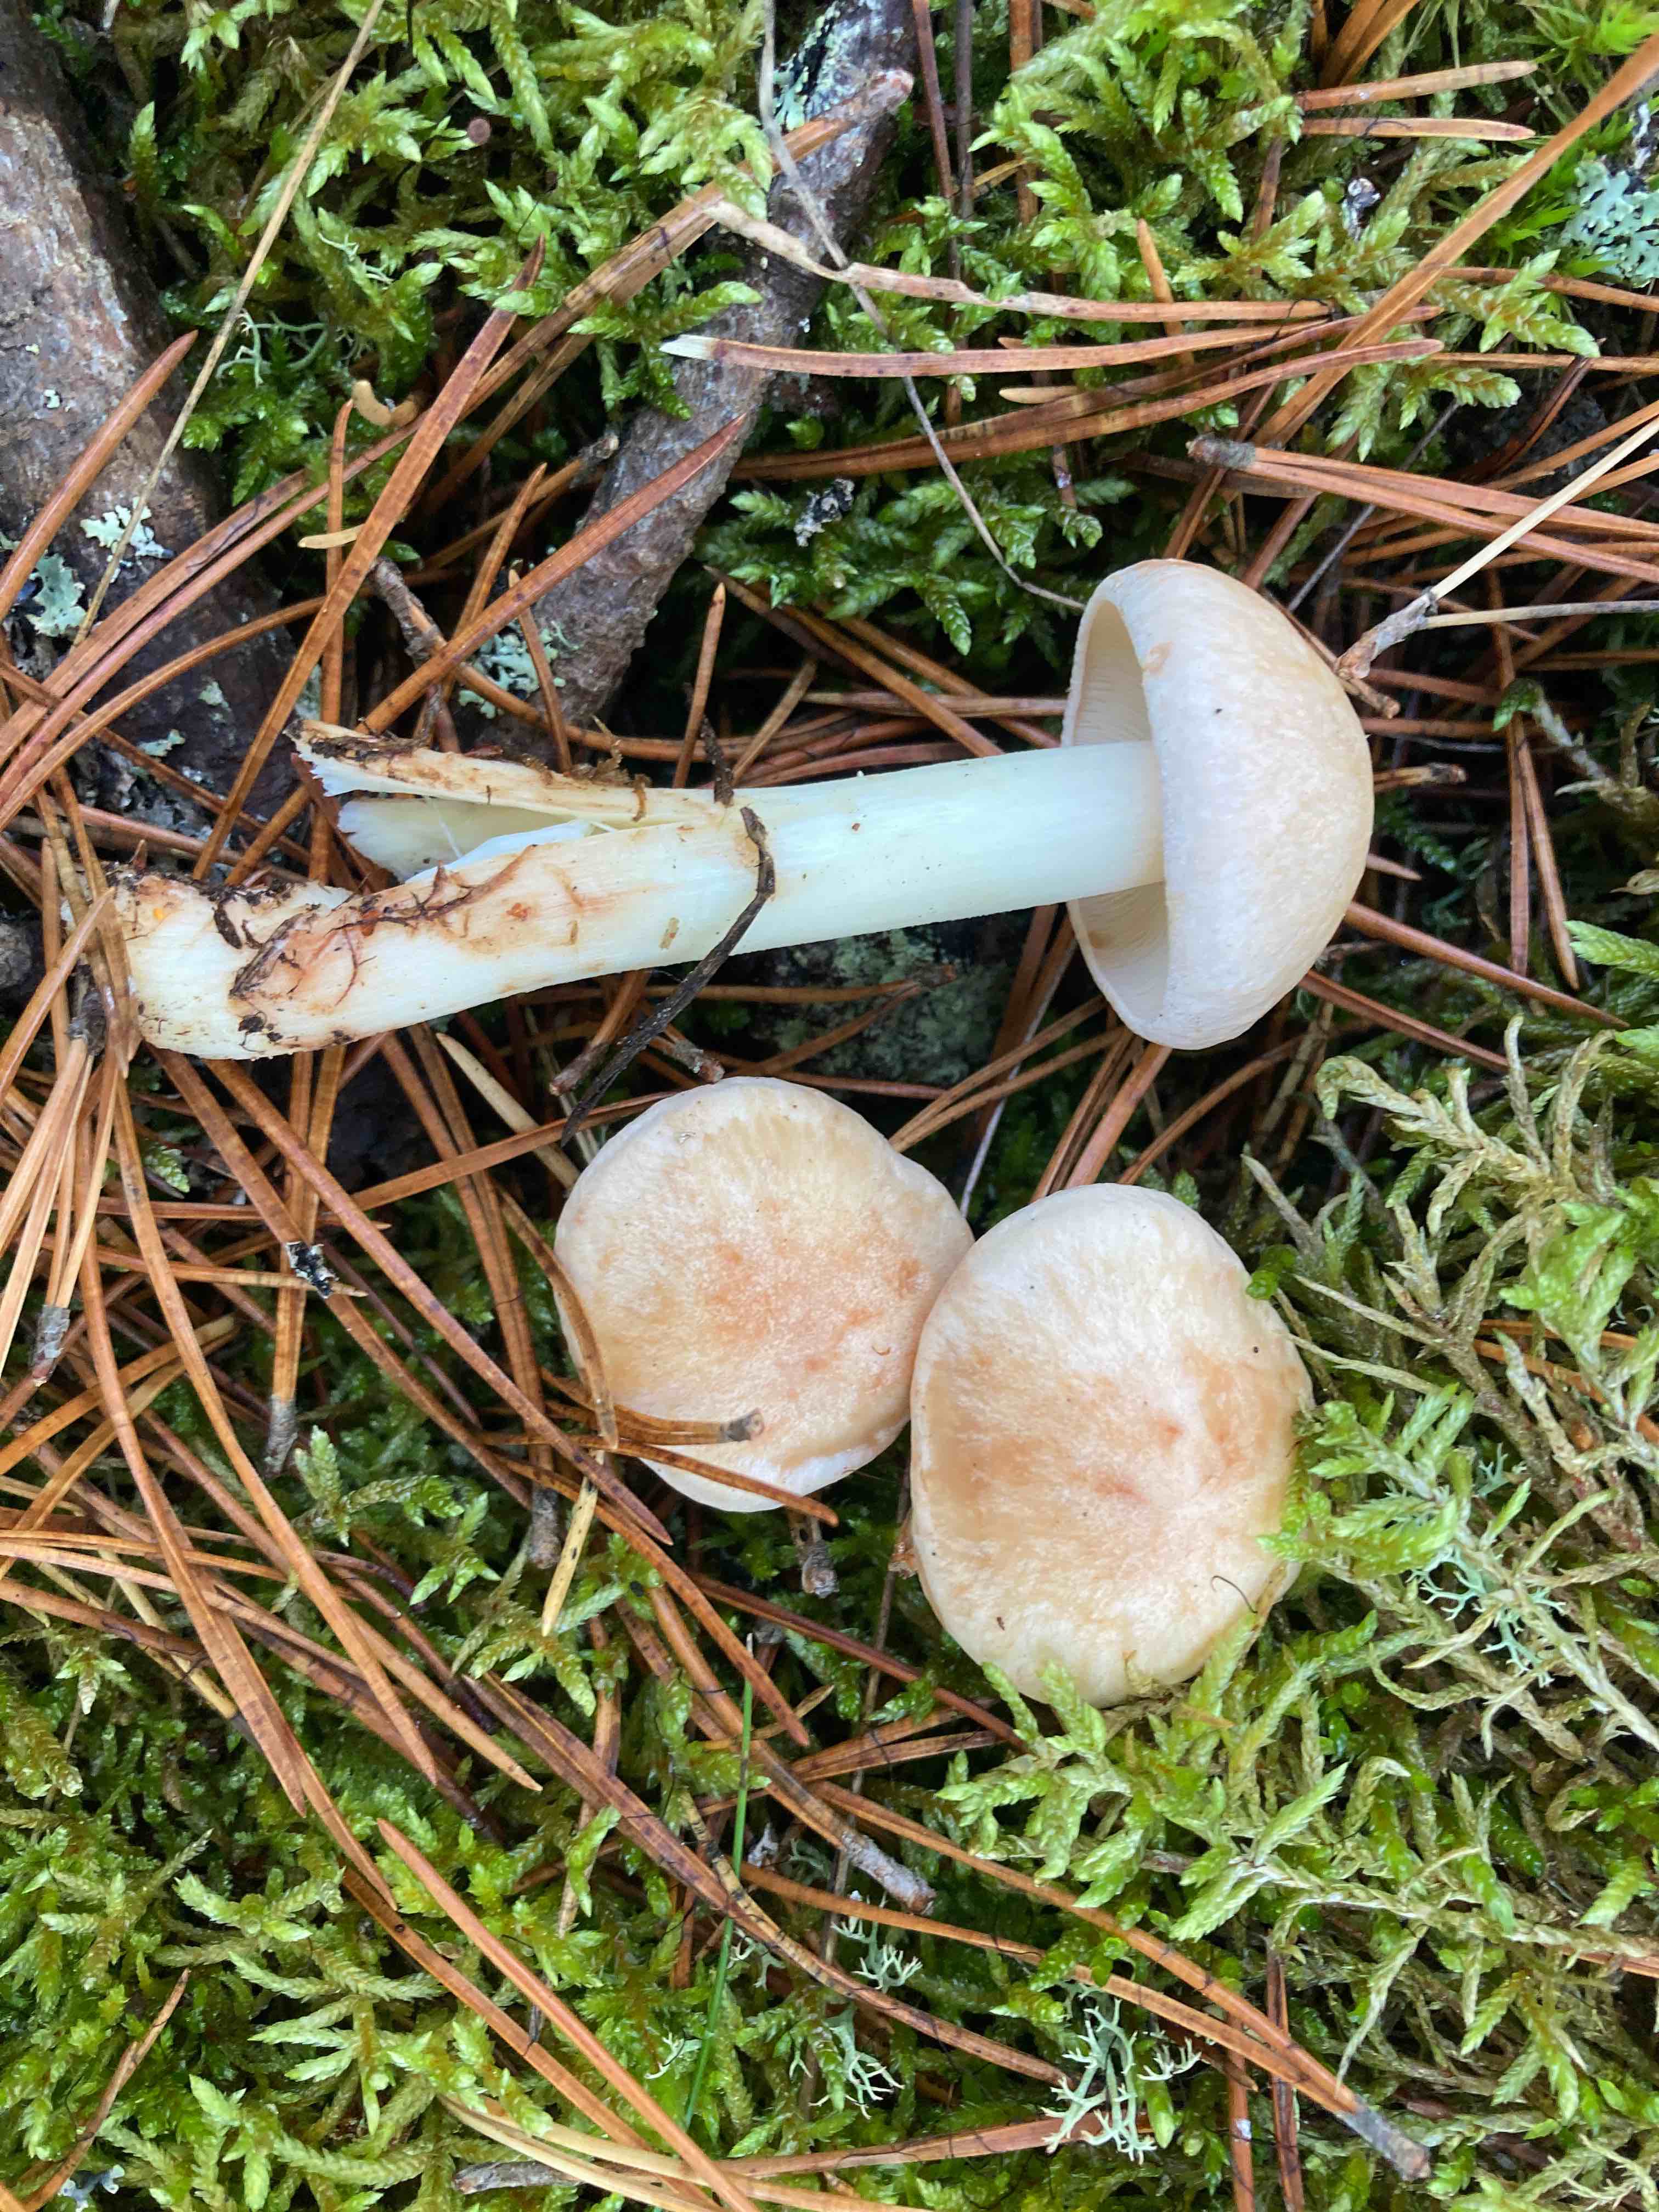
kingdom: Fungi
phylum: Basidiomycota
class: Agaricomycetes
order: Agaricales
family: Omphalotaceae
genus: Rhodocollybia
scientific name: Rhodocollybia maculata
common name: plettet fladhat
